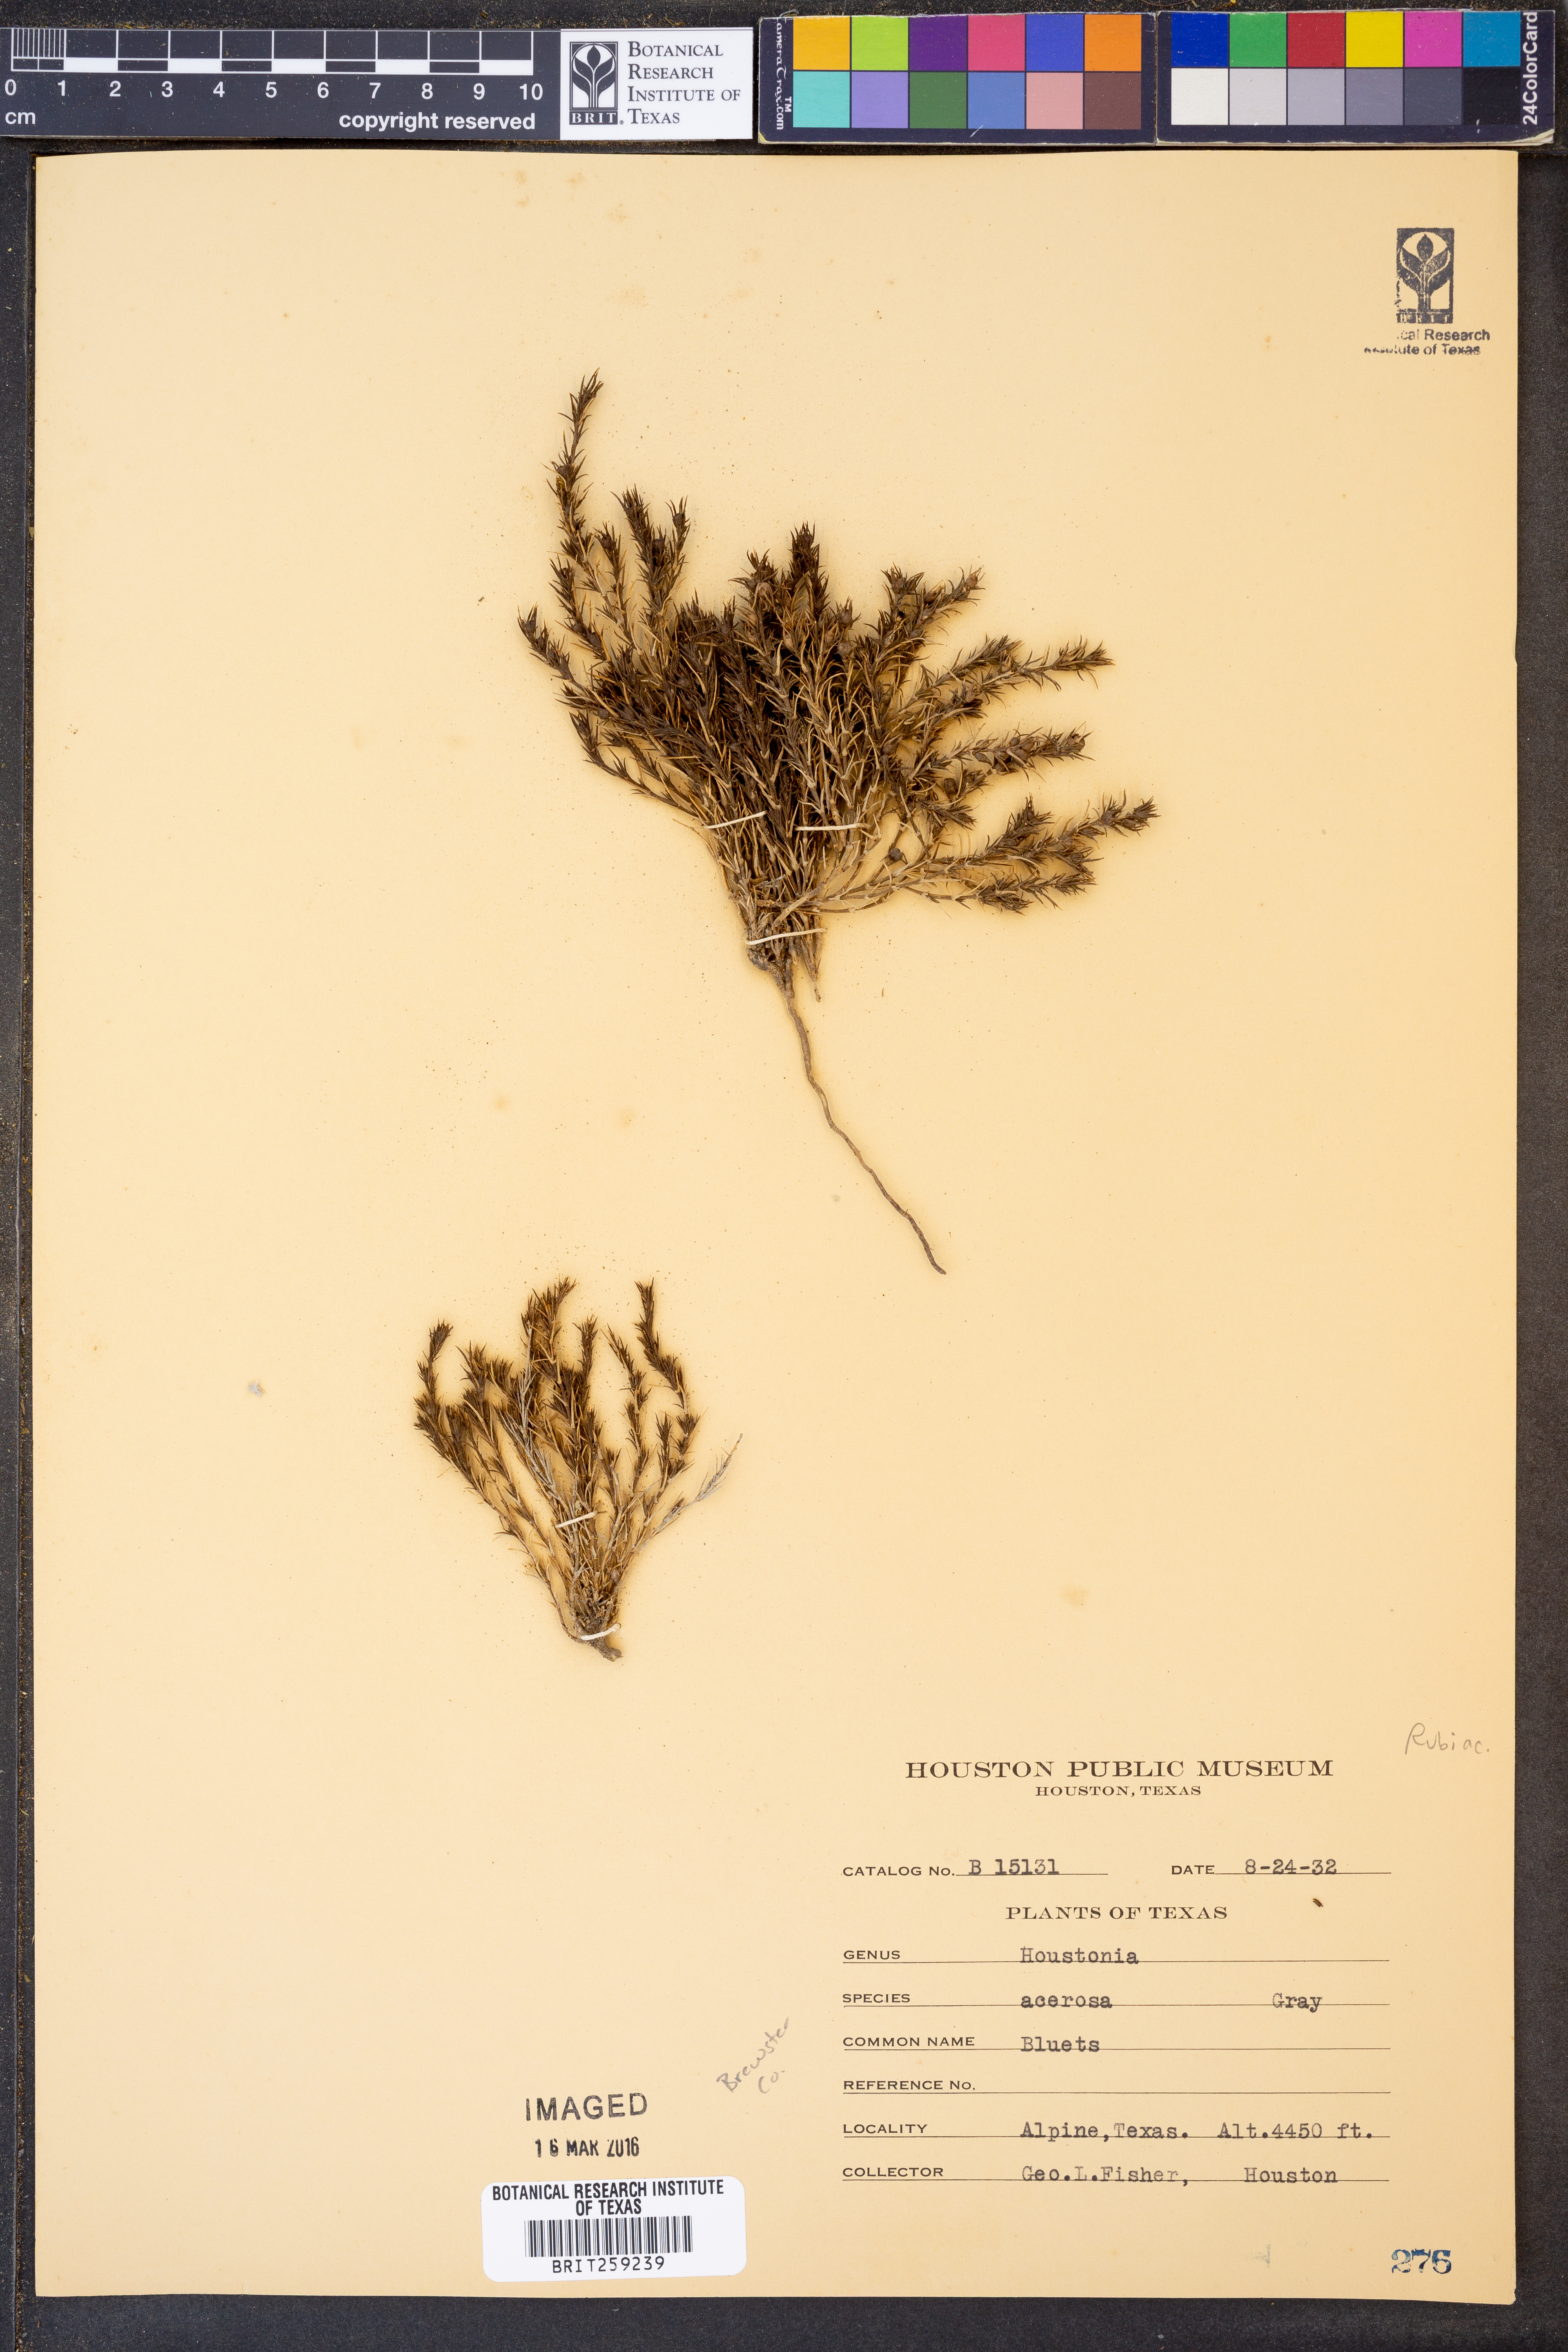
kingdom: Plantae
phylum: Tracheophyta
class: Magnoliopsida
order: Gentianales
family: Rubiaceae
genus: Houstonia
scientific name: Houstonia acerosa
